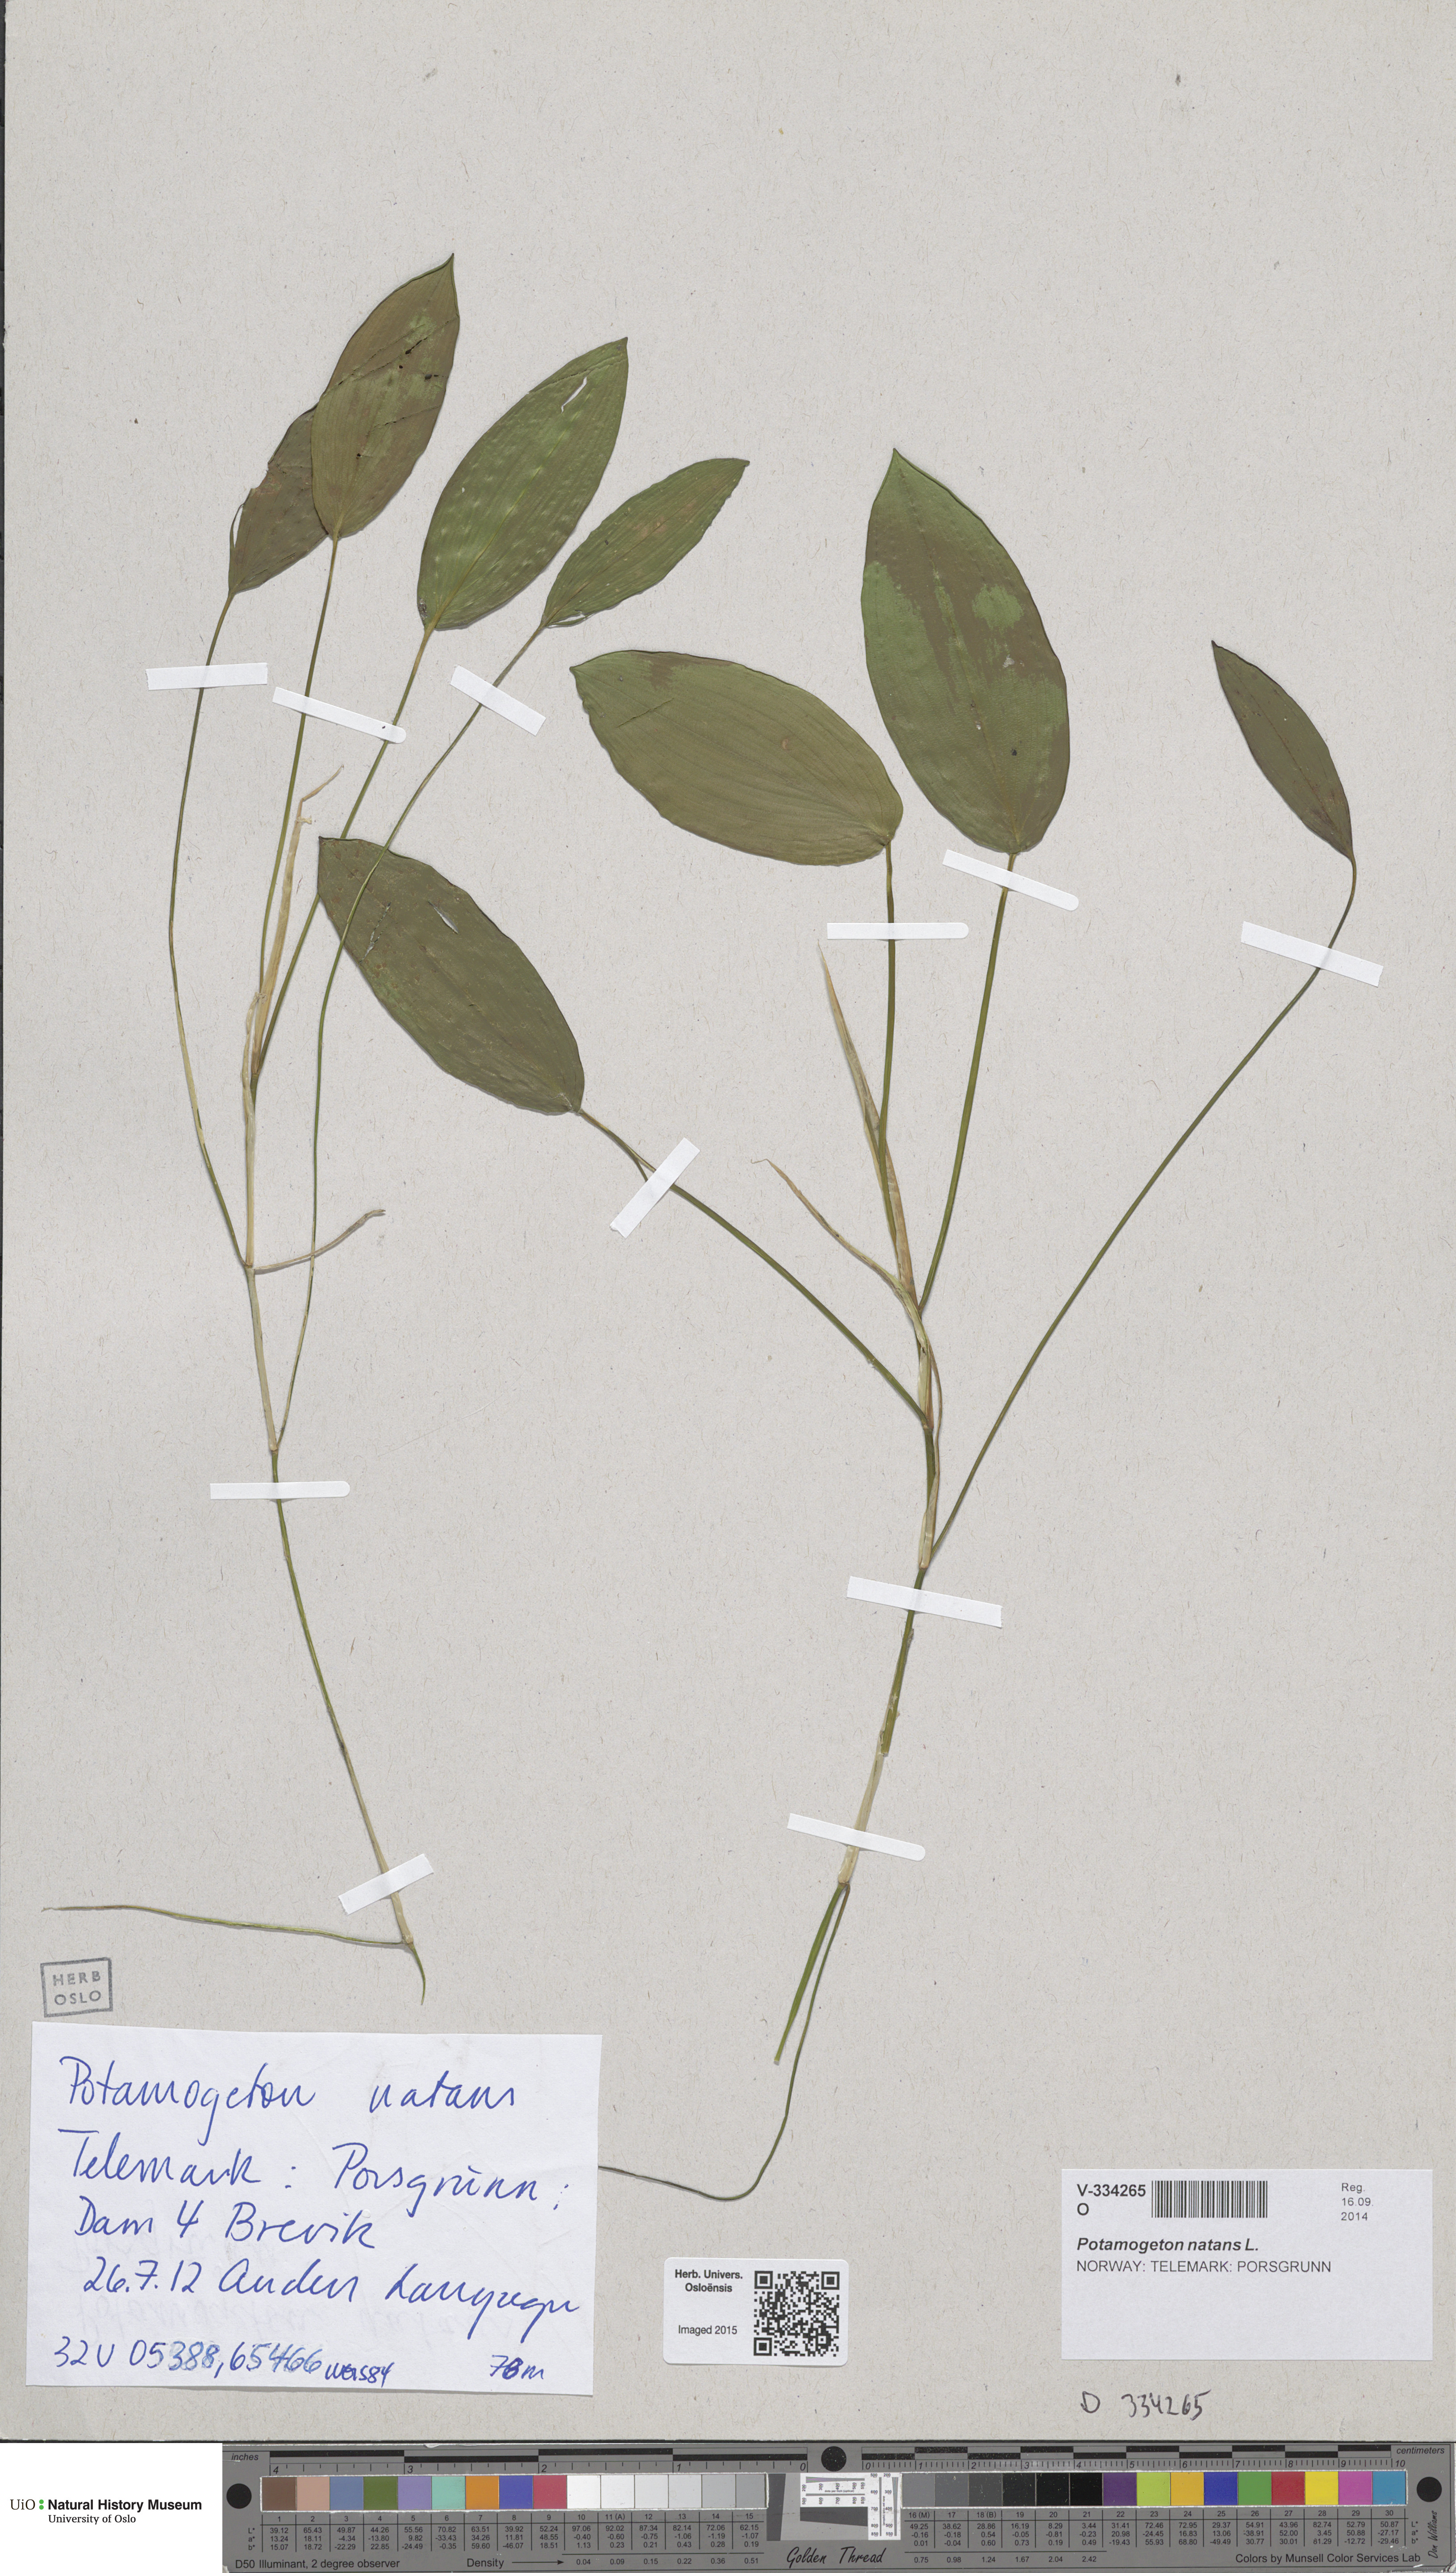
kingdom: Plantae
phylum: Tracheophyta
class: Liliopsida
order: Alismatales
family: Potamogetonaceae
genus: Potamogeton
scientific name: Potamogeton natans
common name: Broad-leaved pondweed
